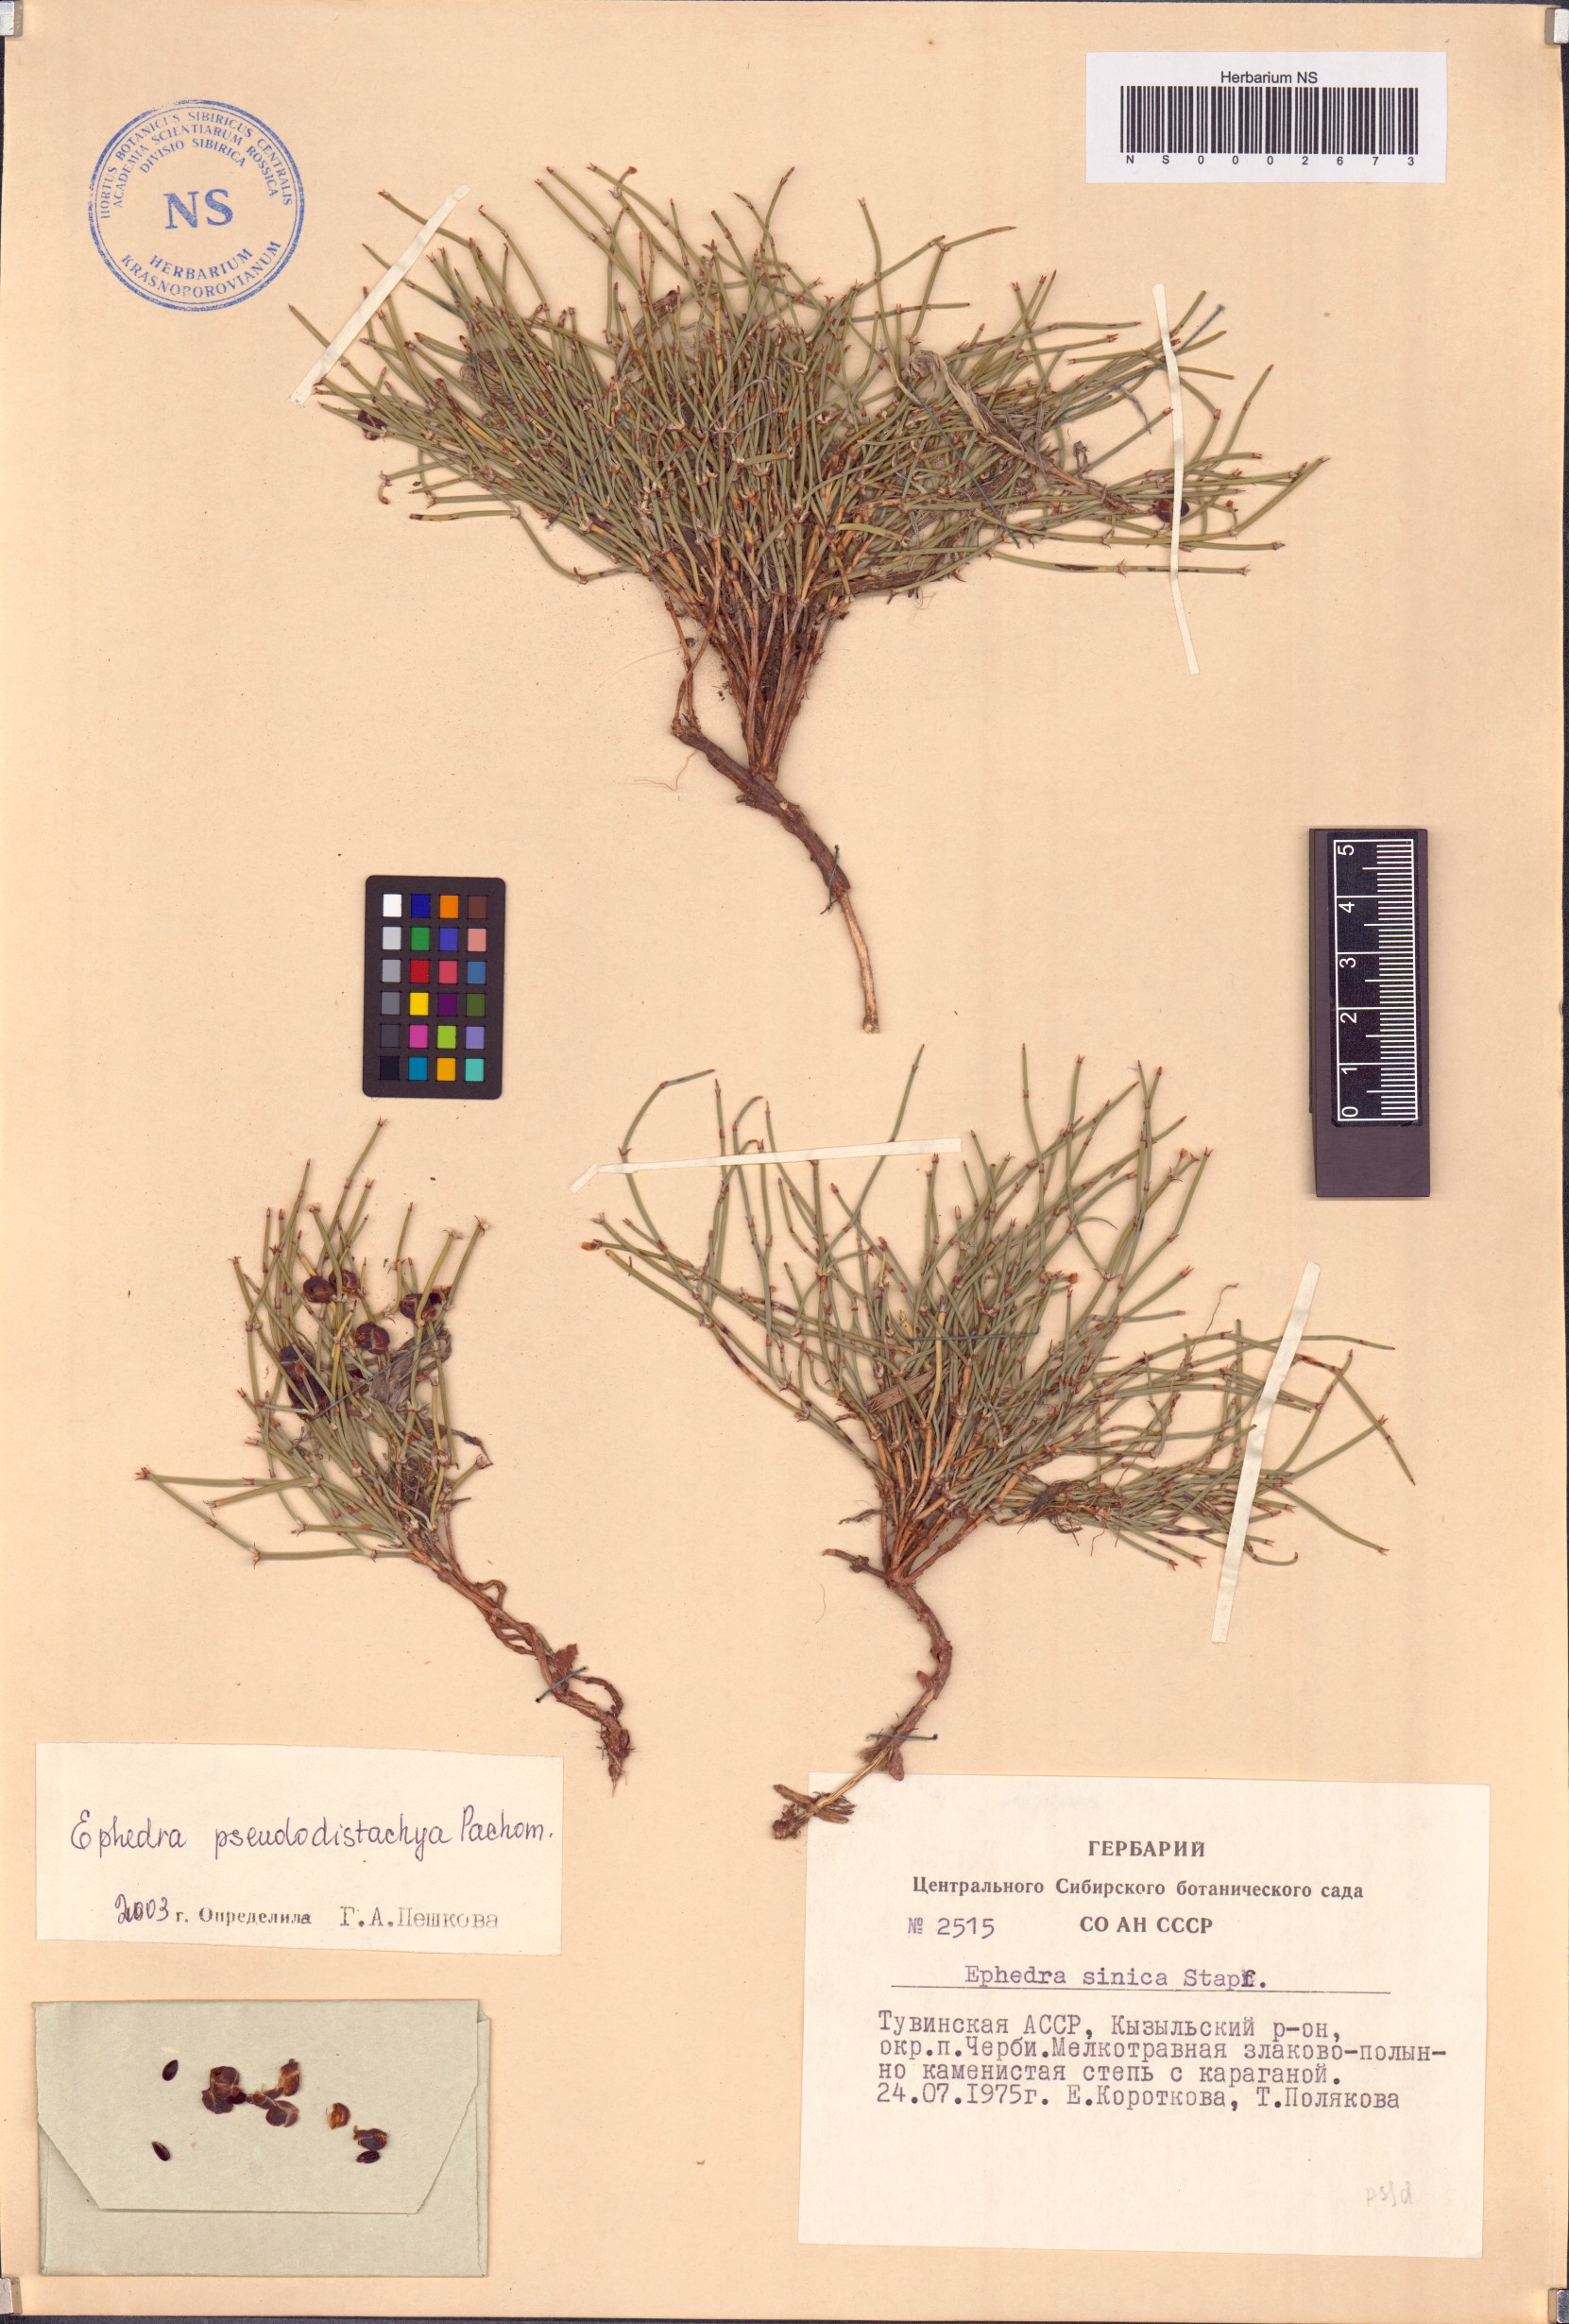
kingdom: Plantae
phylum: Tracheophyta
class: Gnetopsida
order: Ephedrales
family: Ephedraceae
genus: Ephedra
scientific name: Ephedra pseudodistachya
